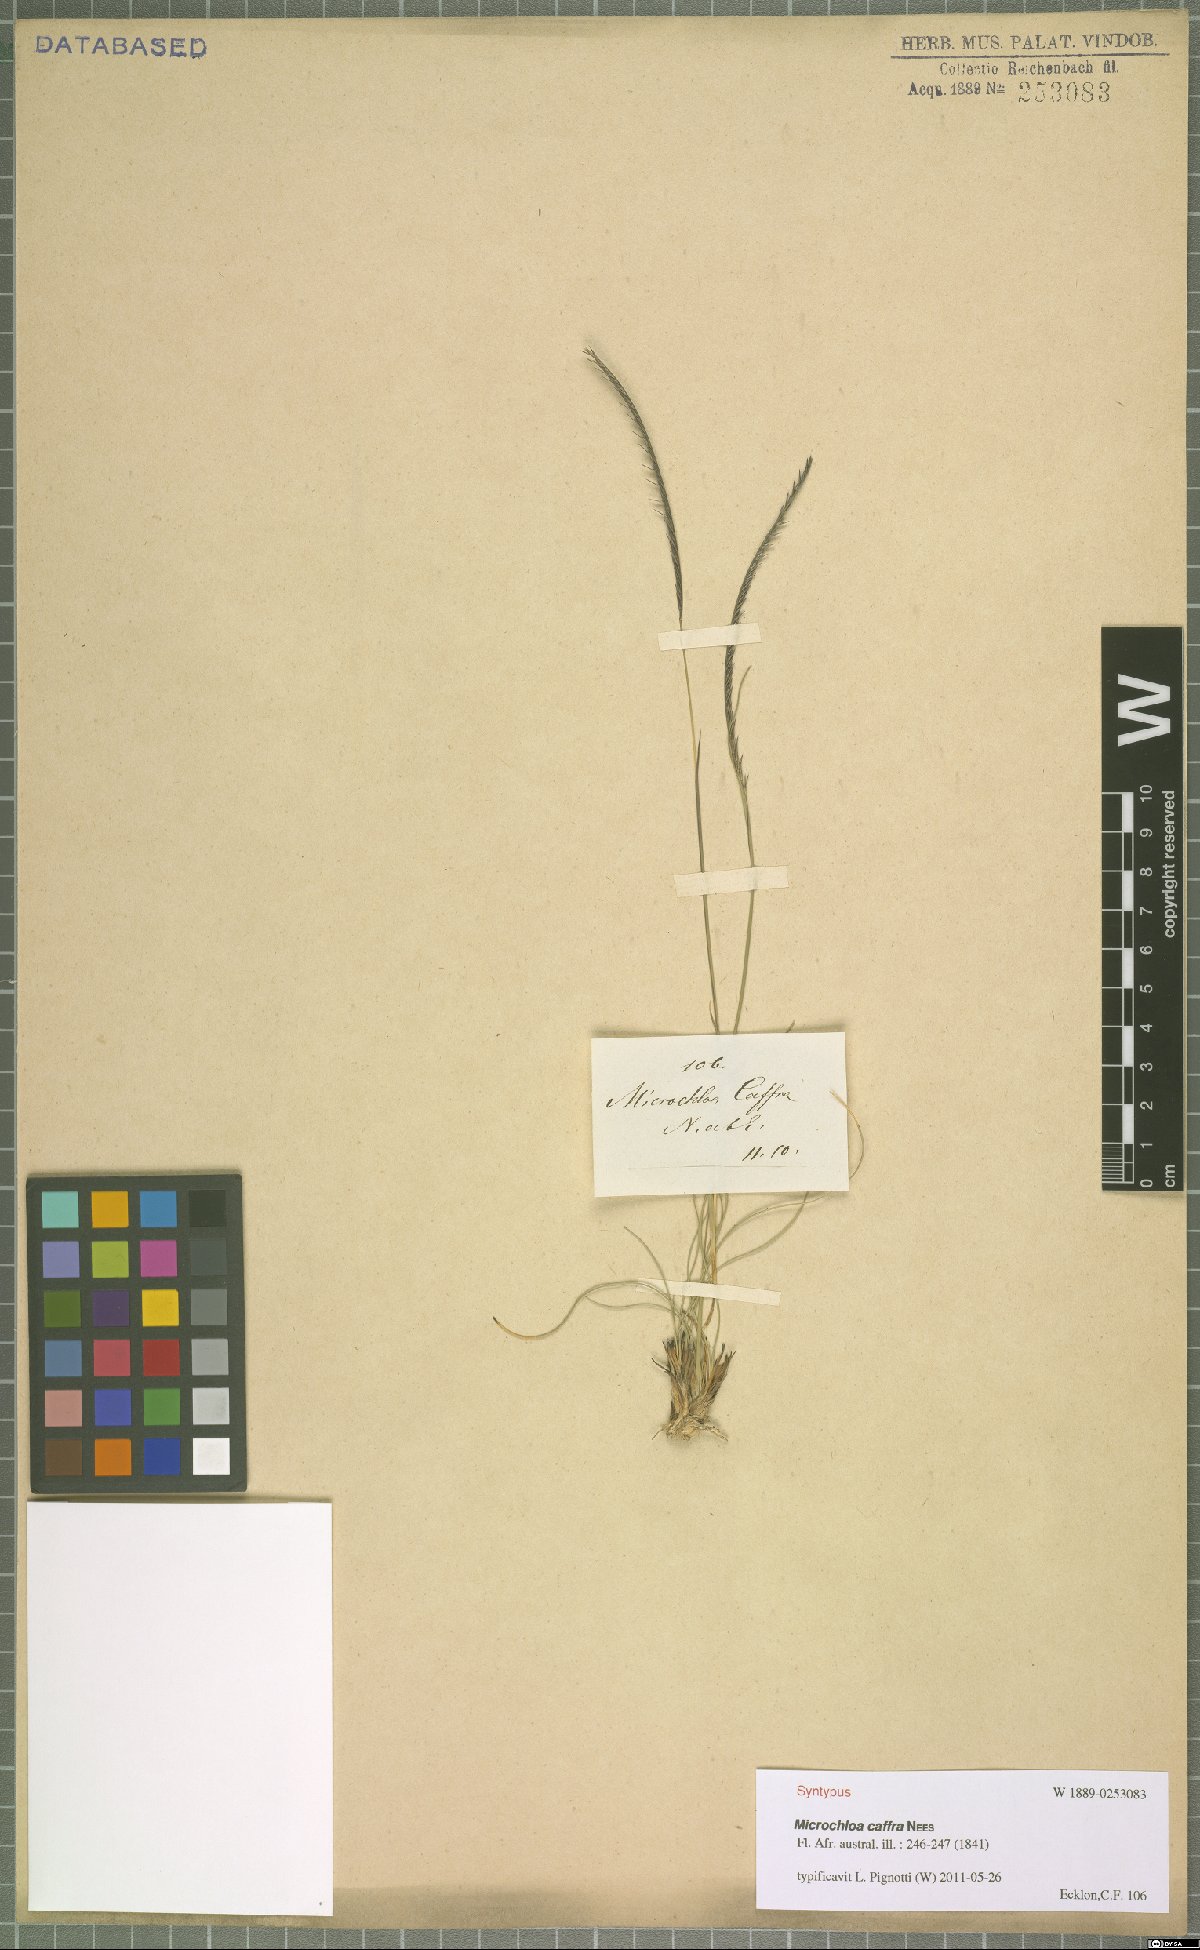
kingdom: Plantae
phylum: Tracheophyta
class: Liliopsida
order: Poales
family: Poaceae
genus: Microchloa
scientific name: Microchloa caffra
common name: Pincushion grass
